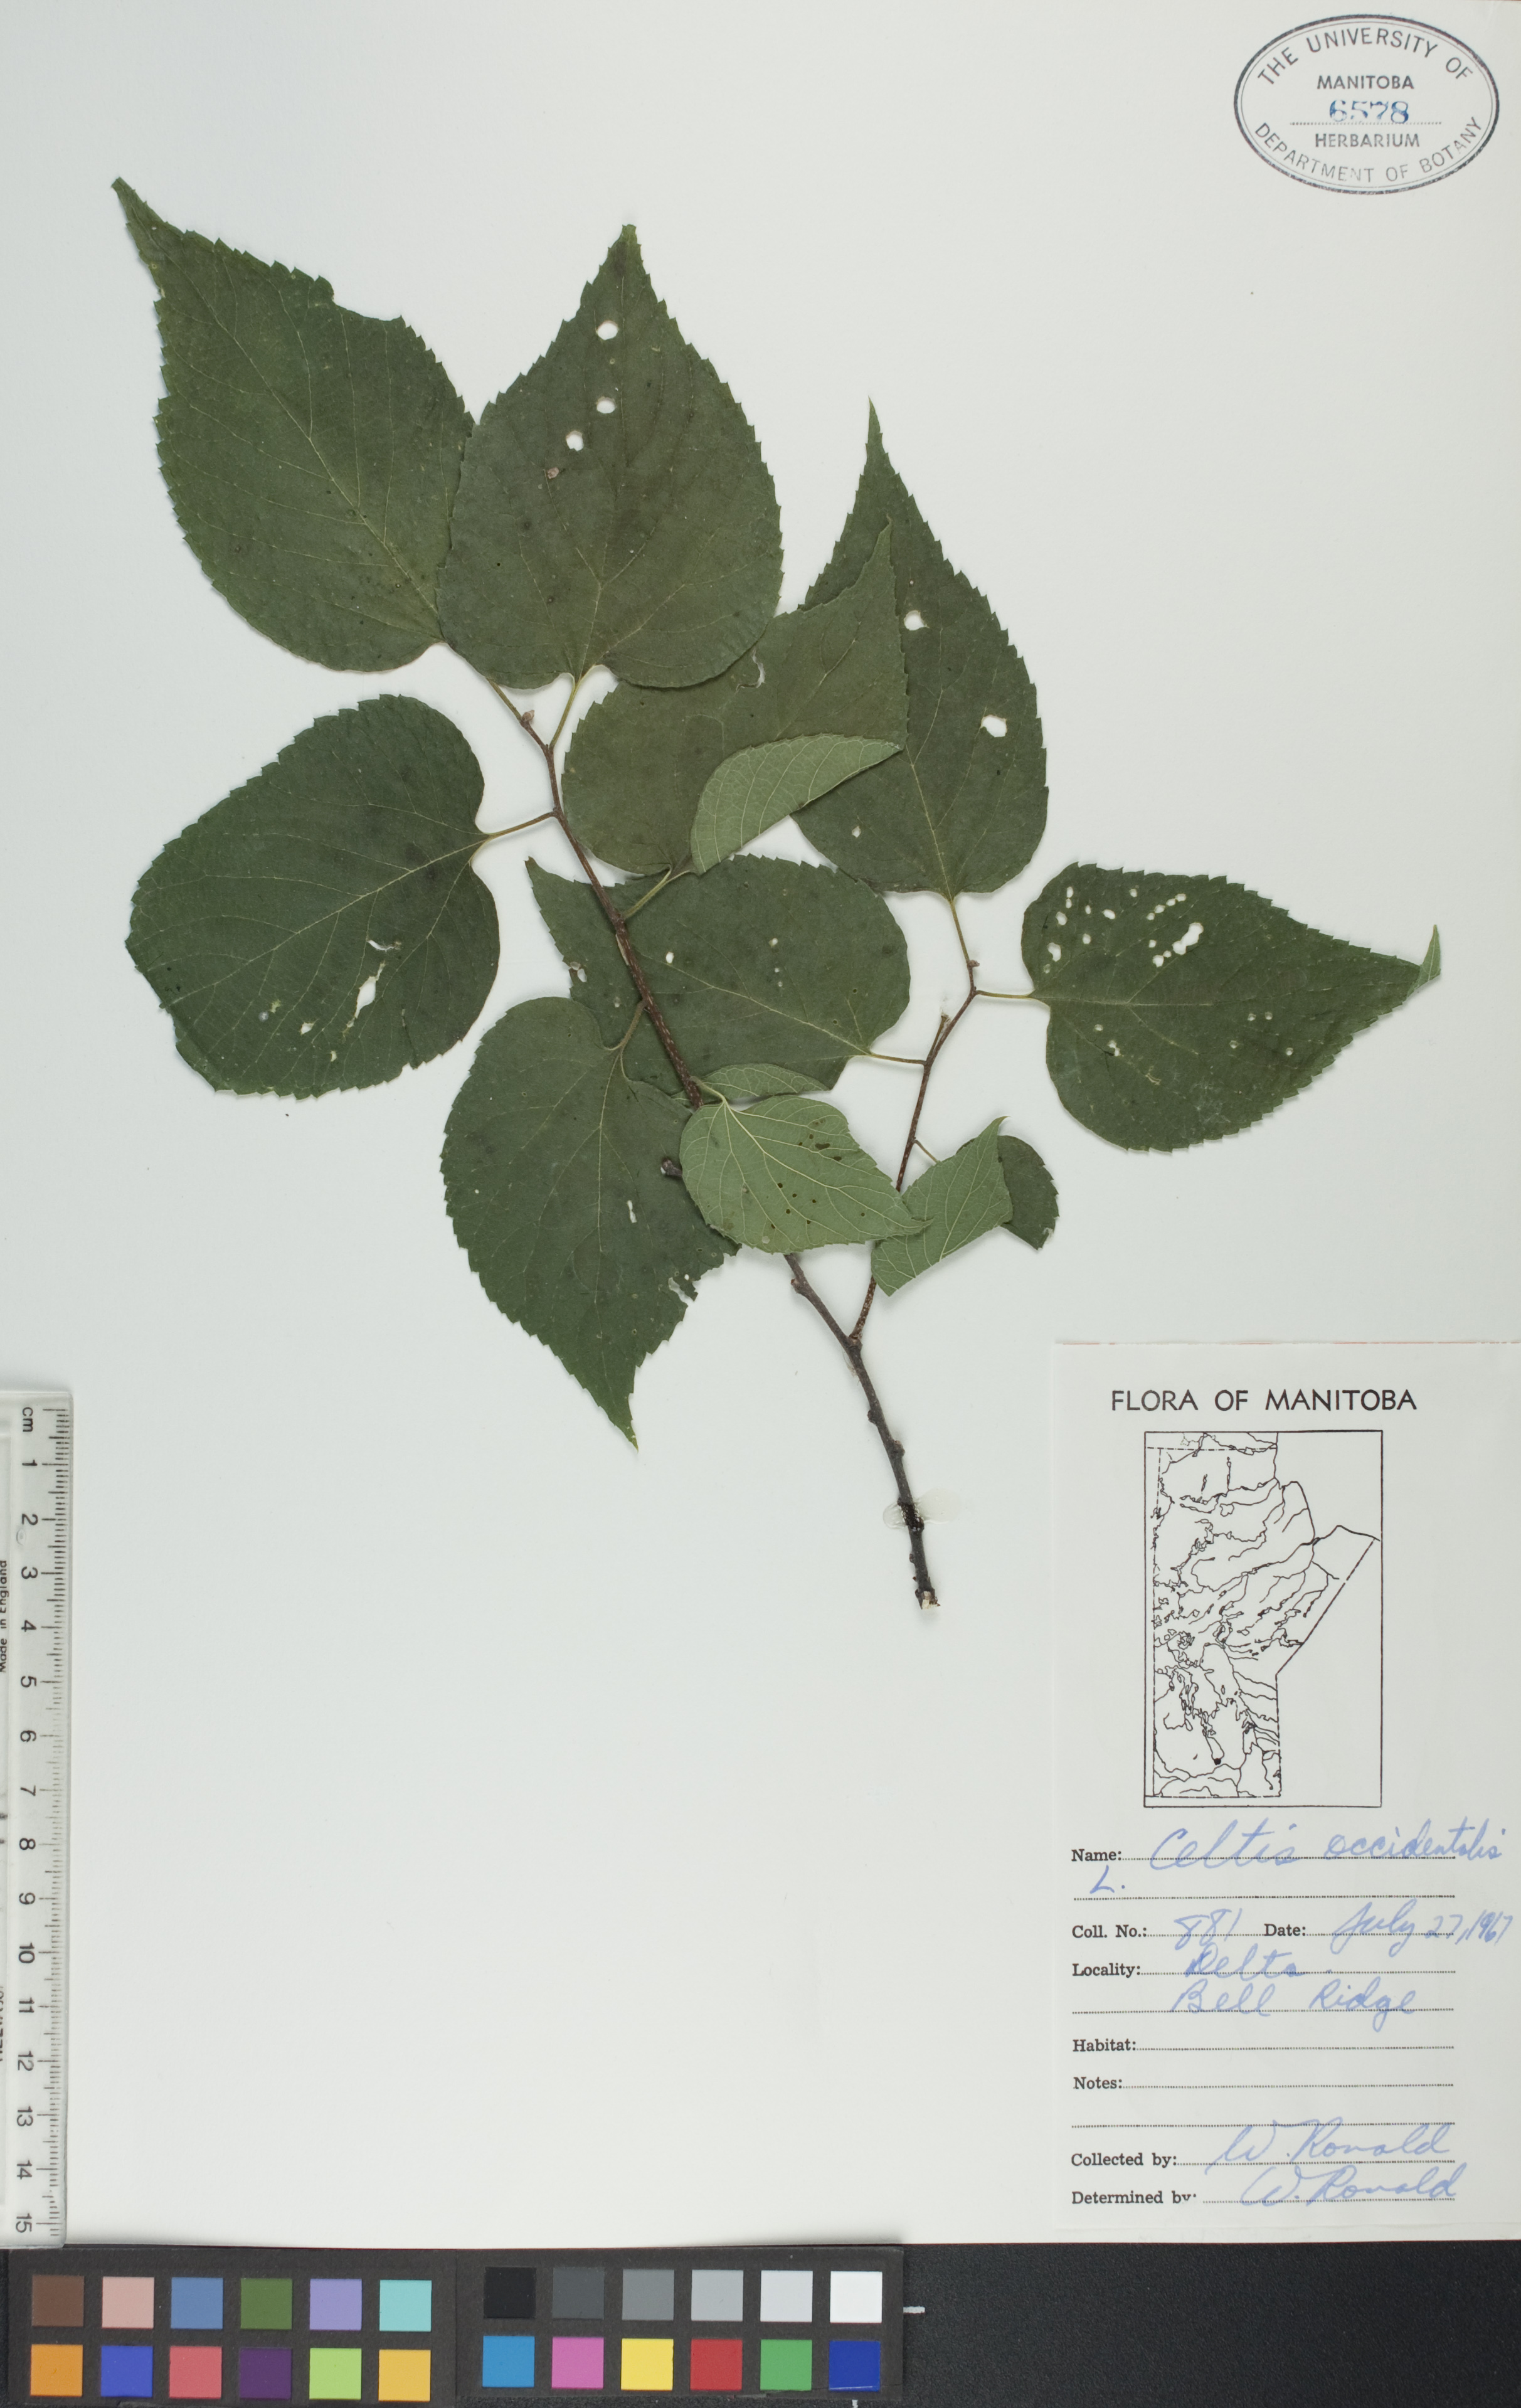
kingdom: Plantae
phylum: Tracheophyta
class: Magnoliopsida
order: Rosales
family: Cannabaceae
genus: Celtis
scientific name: Celtis occidentalis
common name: Common hackberry
